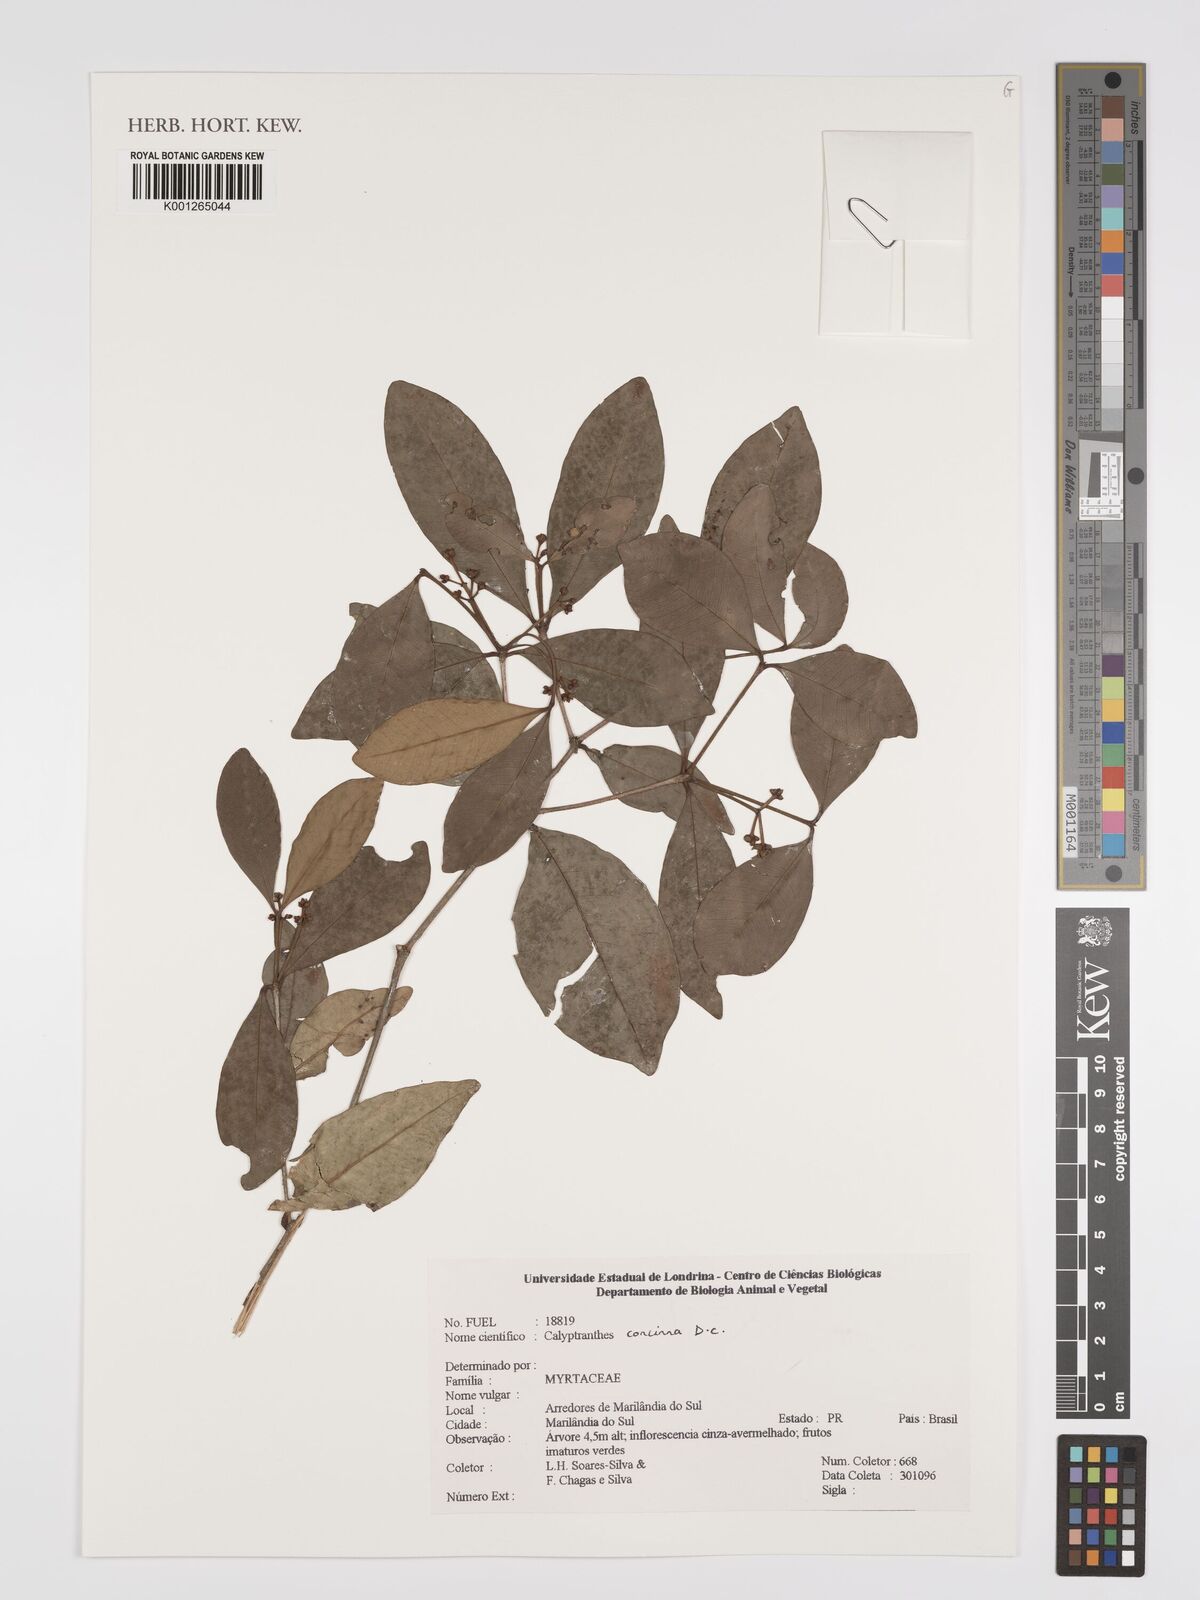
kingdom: Plantae
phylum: Tracheophyta
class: Magnoliopsida
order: Myrtales
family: Myrtaceae
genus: Myrcia
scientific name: Myrcia cruciflora
